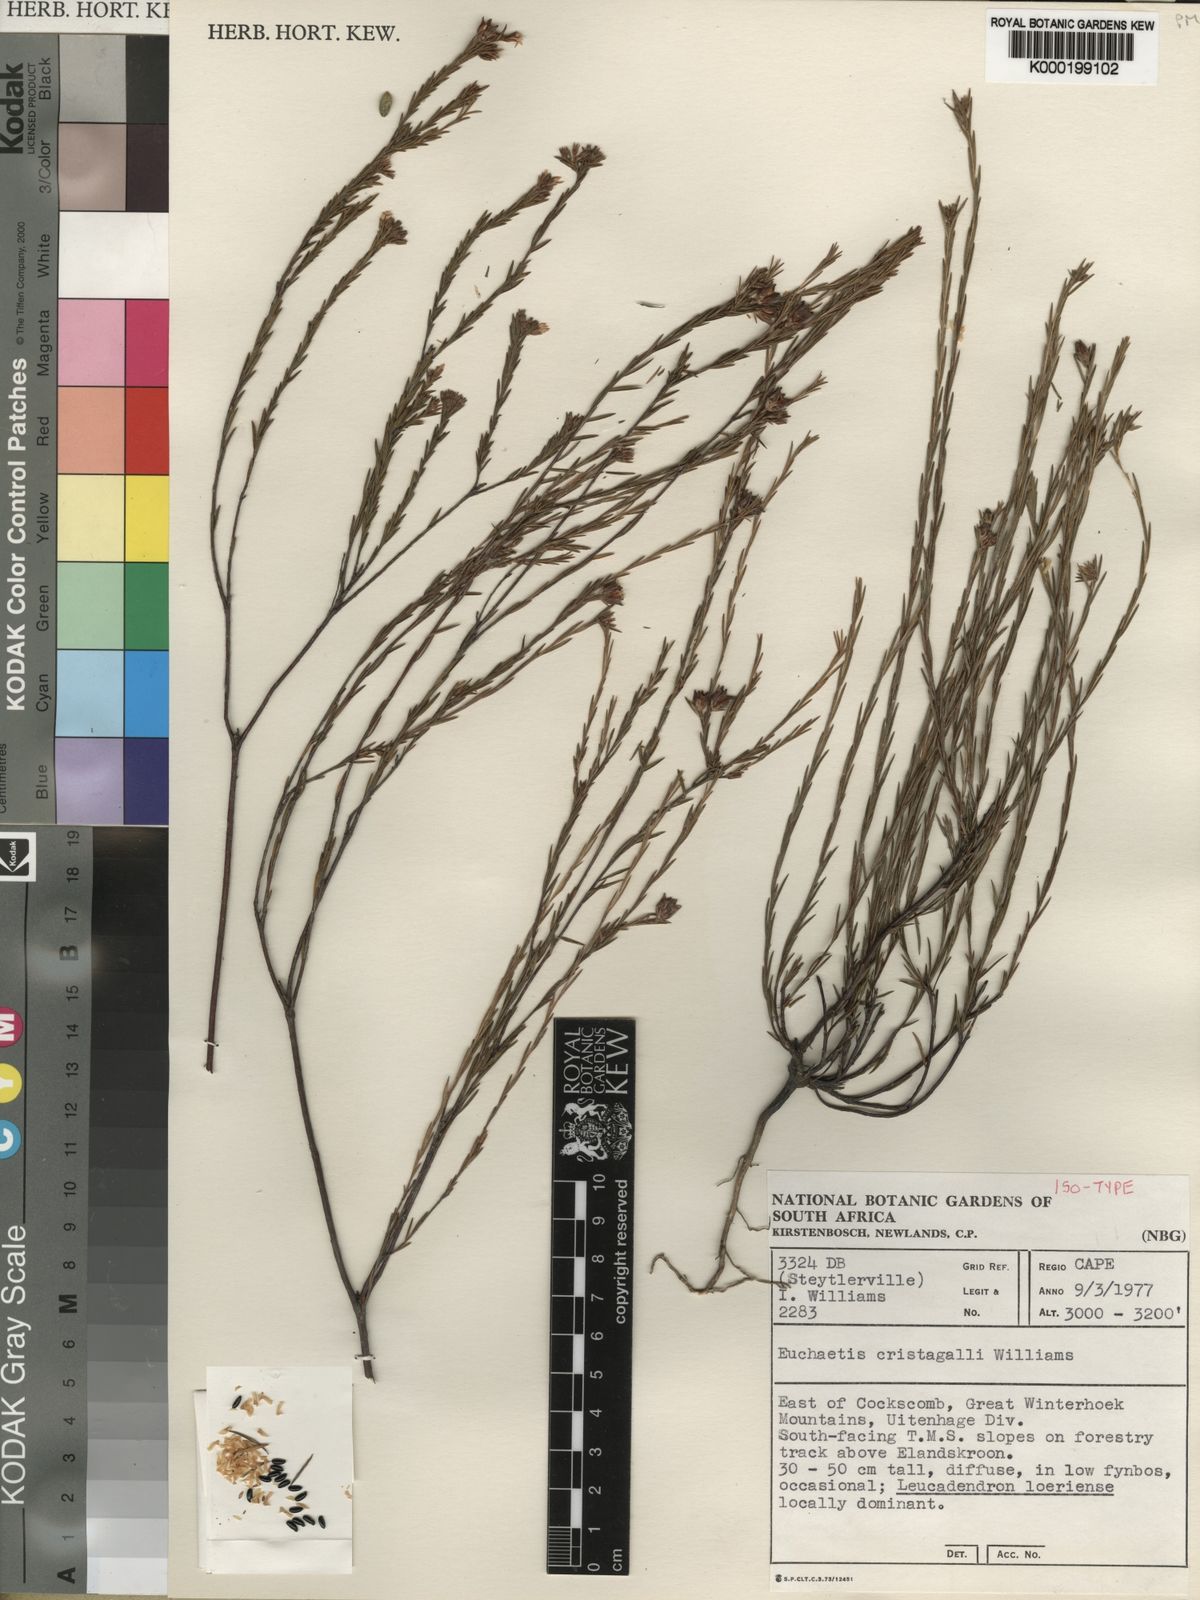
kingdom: Plantae
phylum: Tracheophyta
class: Magnoliopsida
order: Sapindales
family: Rutaceae
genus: Euchaetis
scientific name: Euchaetis cristagalli
